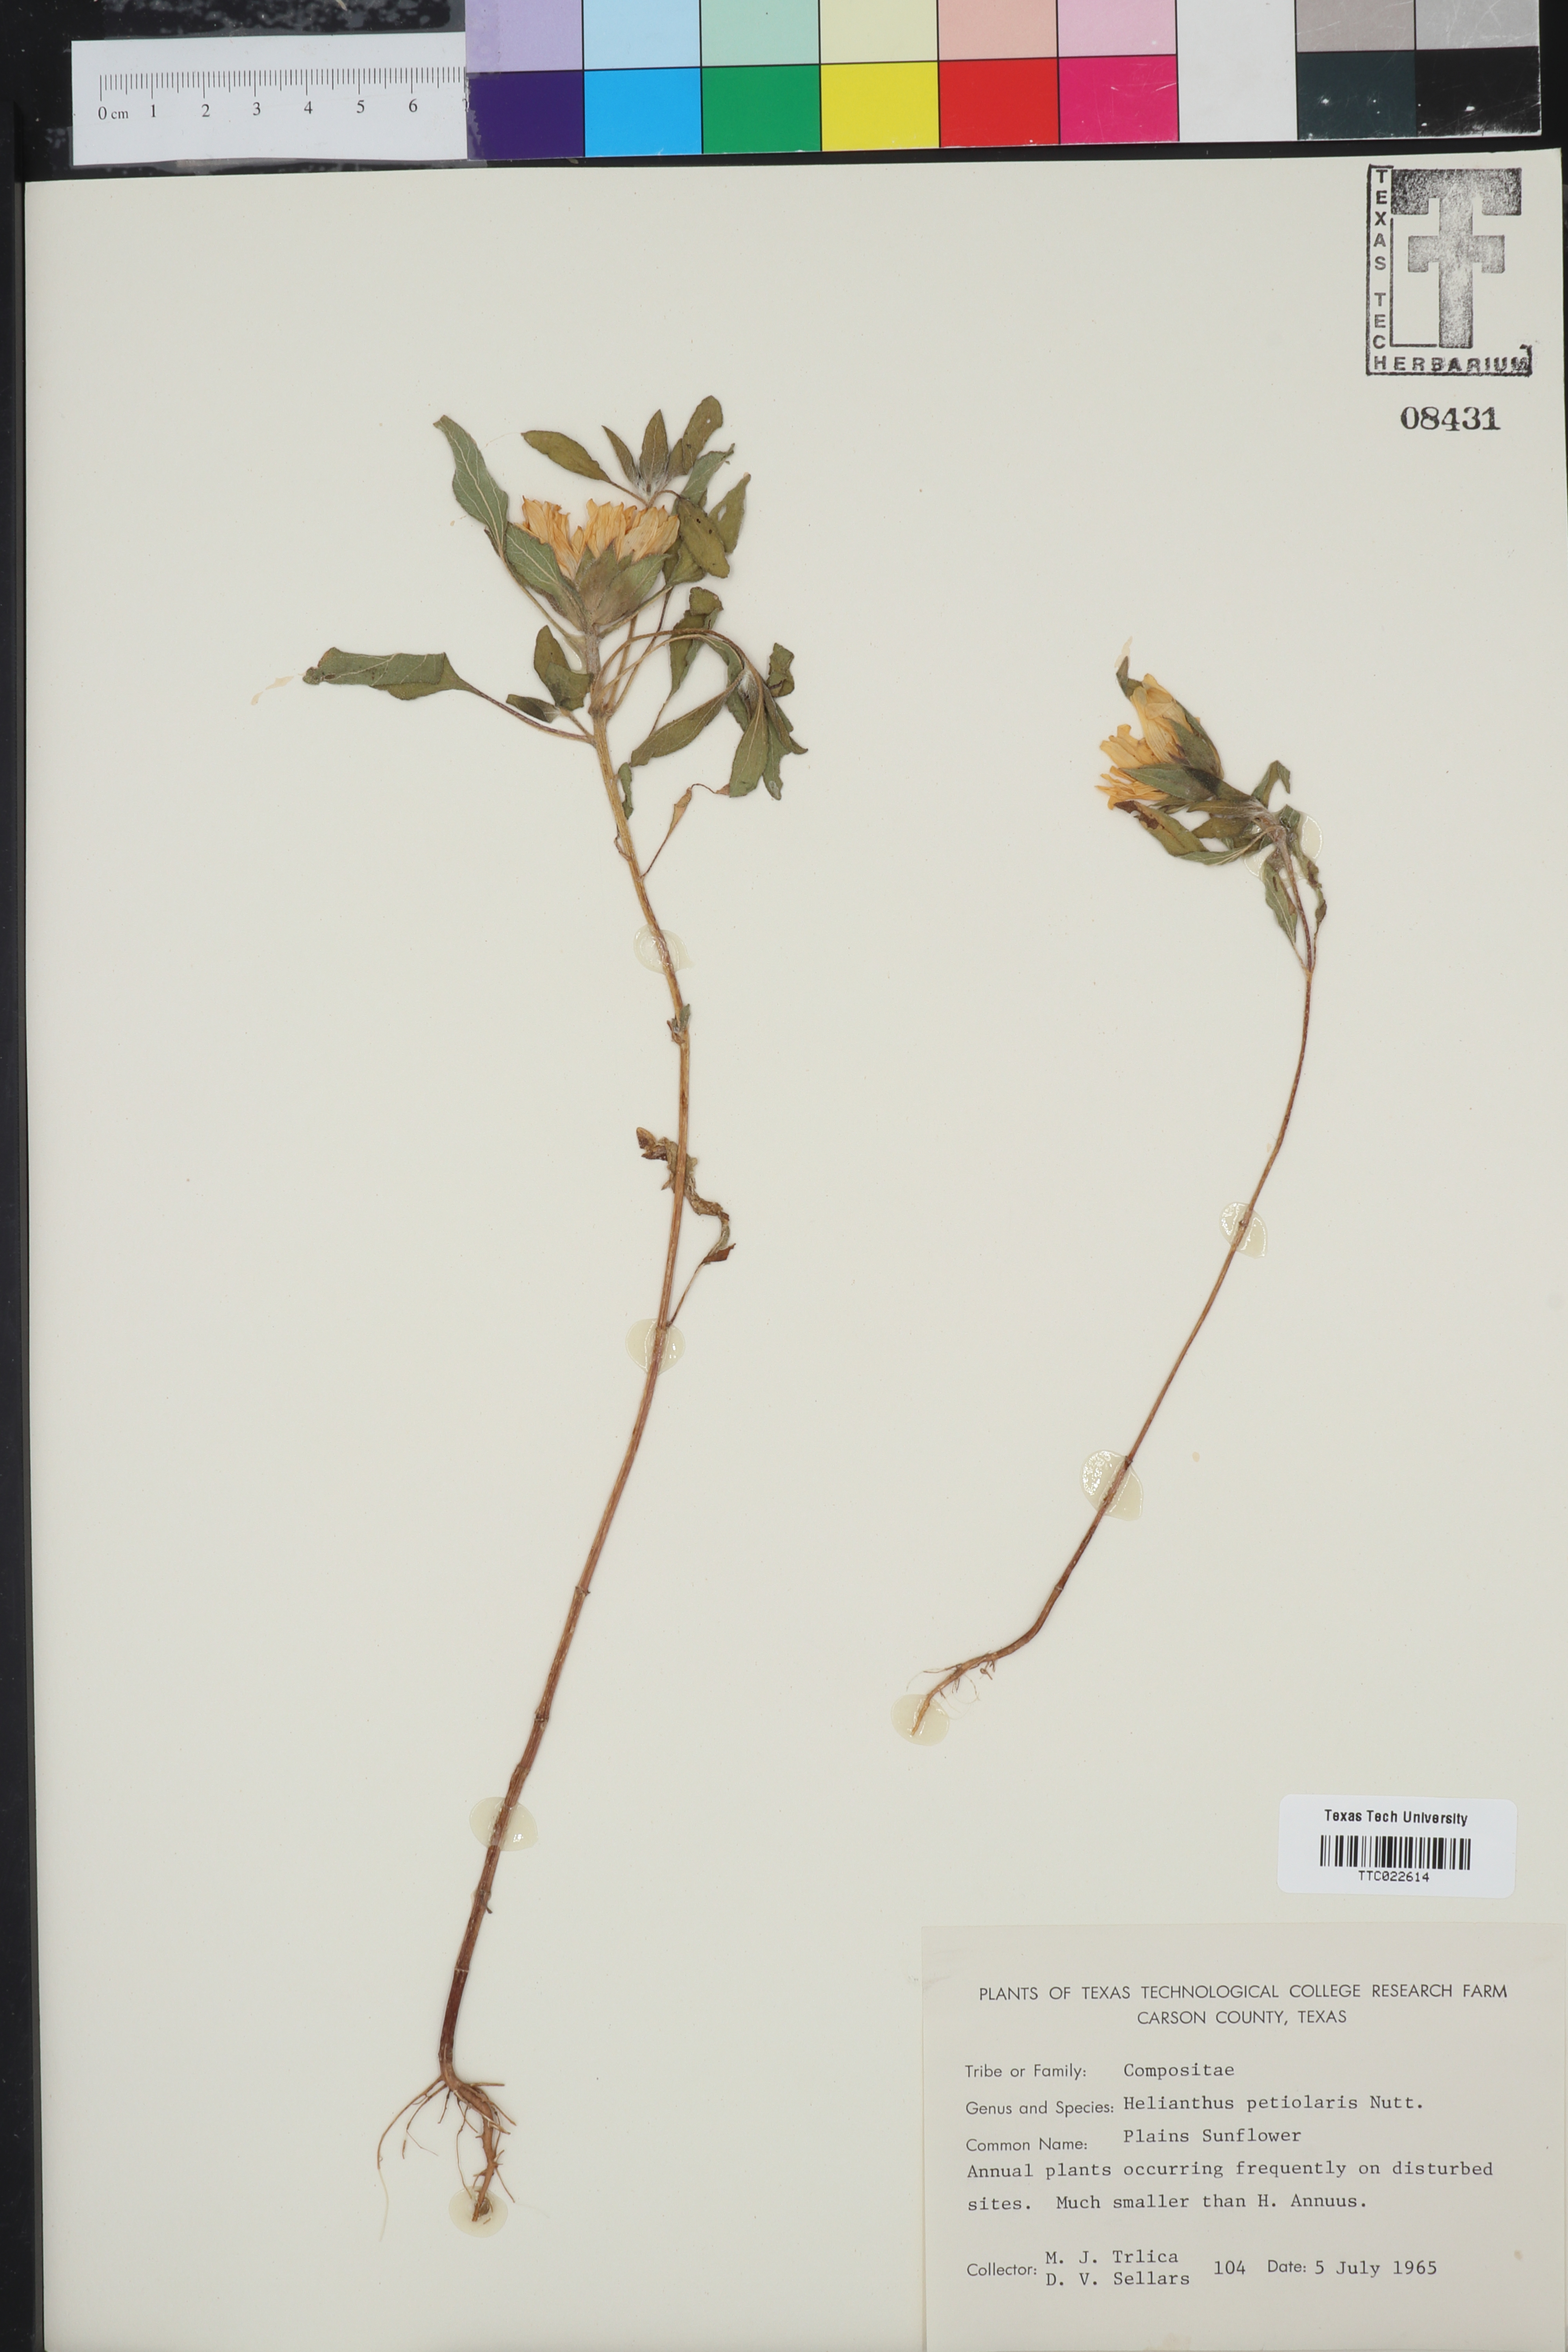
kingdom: Plantae
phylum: Tracheophyta
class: Magnoliopsida
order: Asterales
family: Asteraceae
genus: Helianthus
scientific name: Helianthus petiolaris
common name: Lesser sunflower
